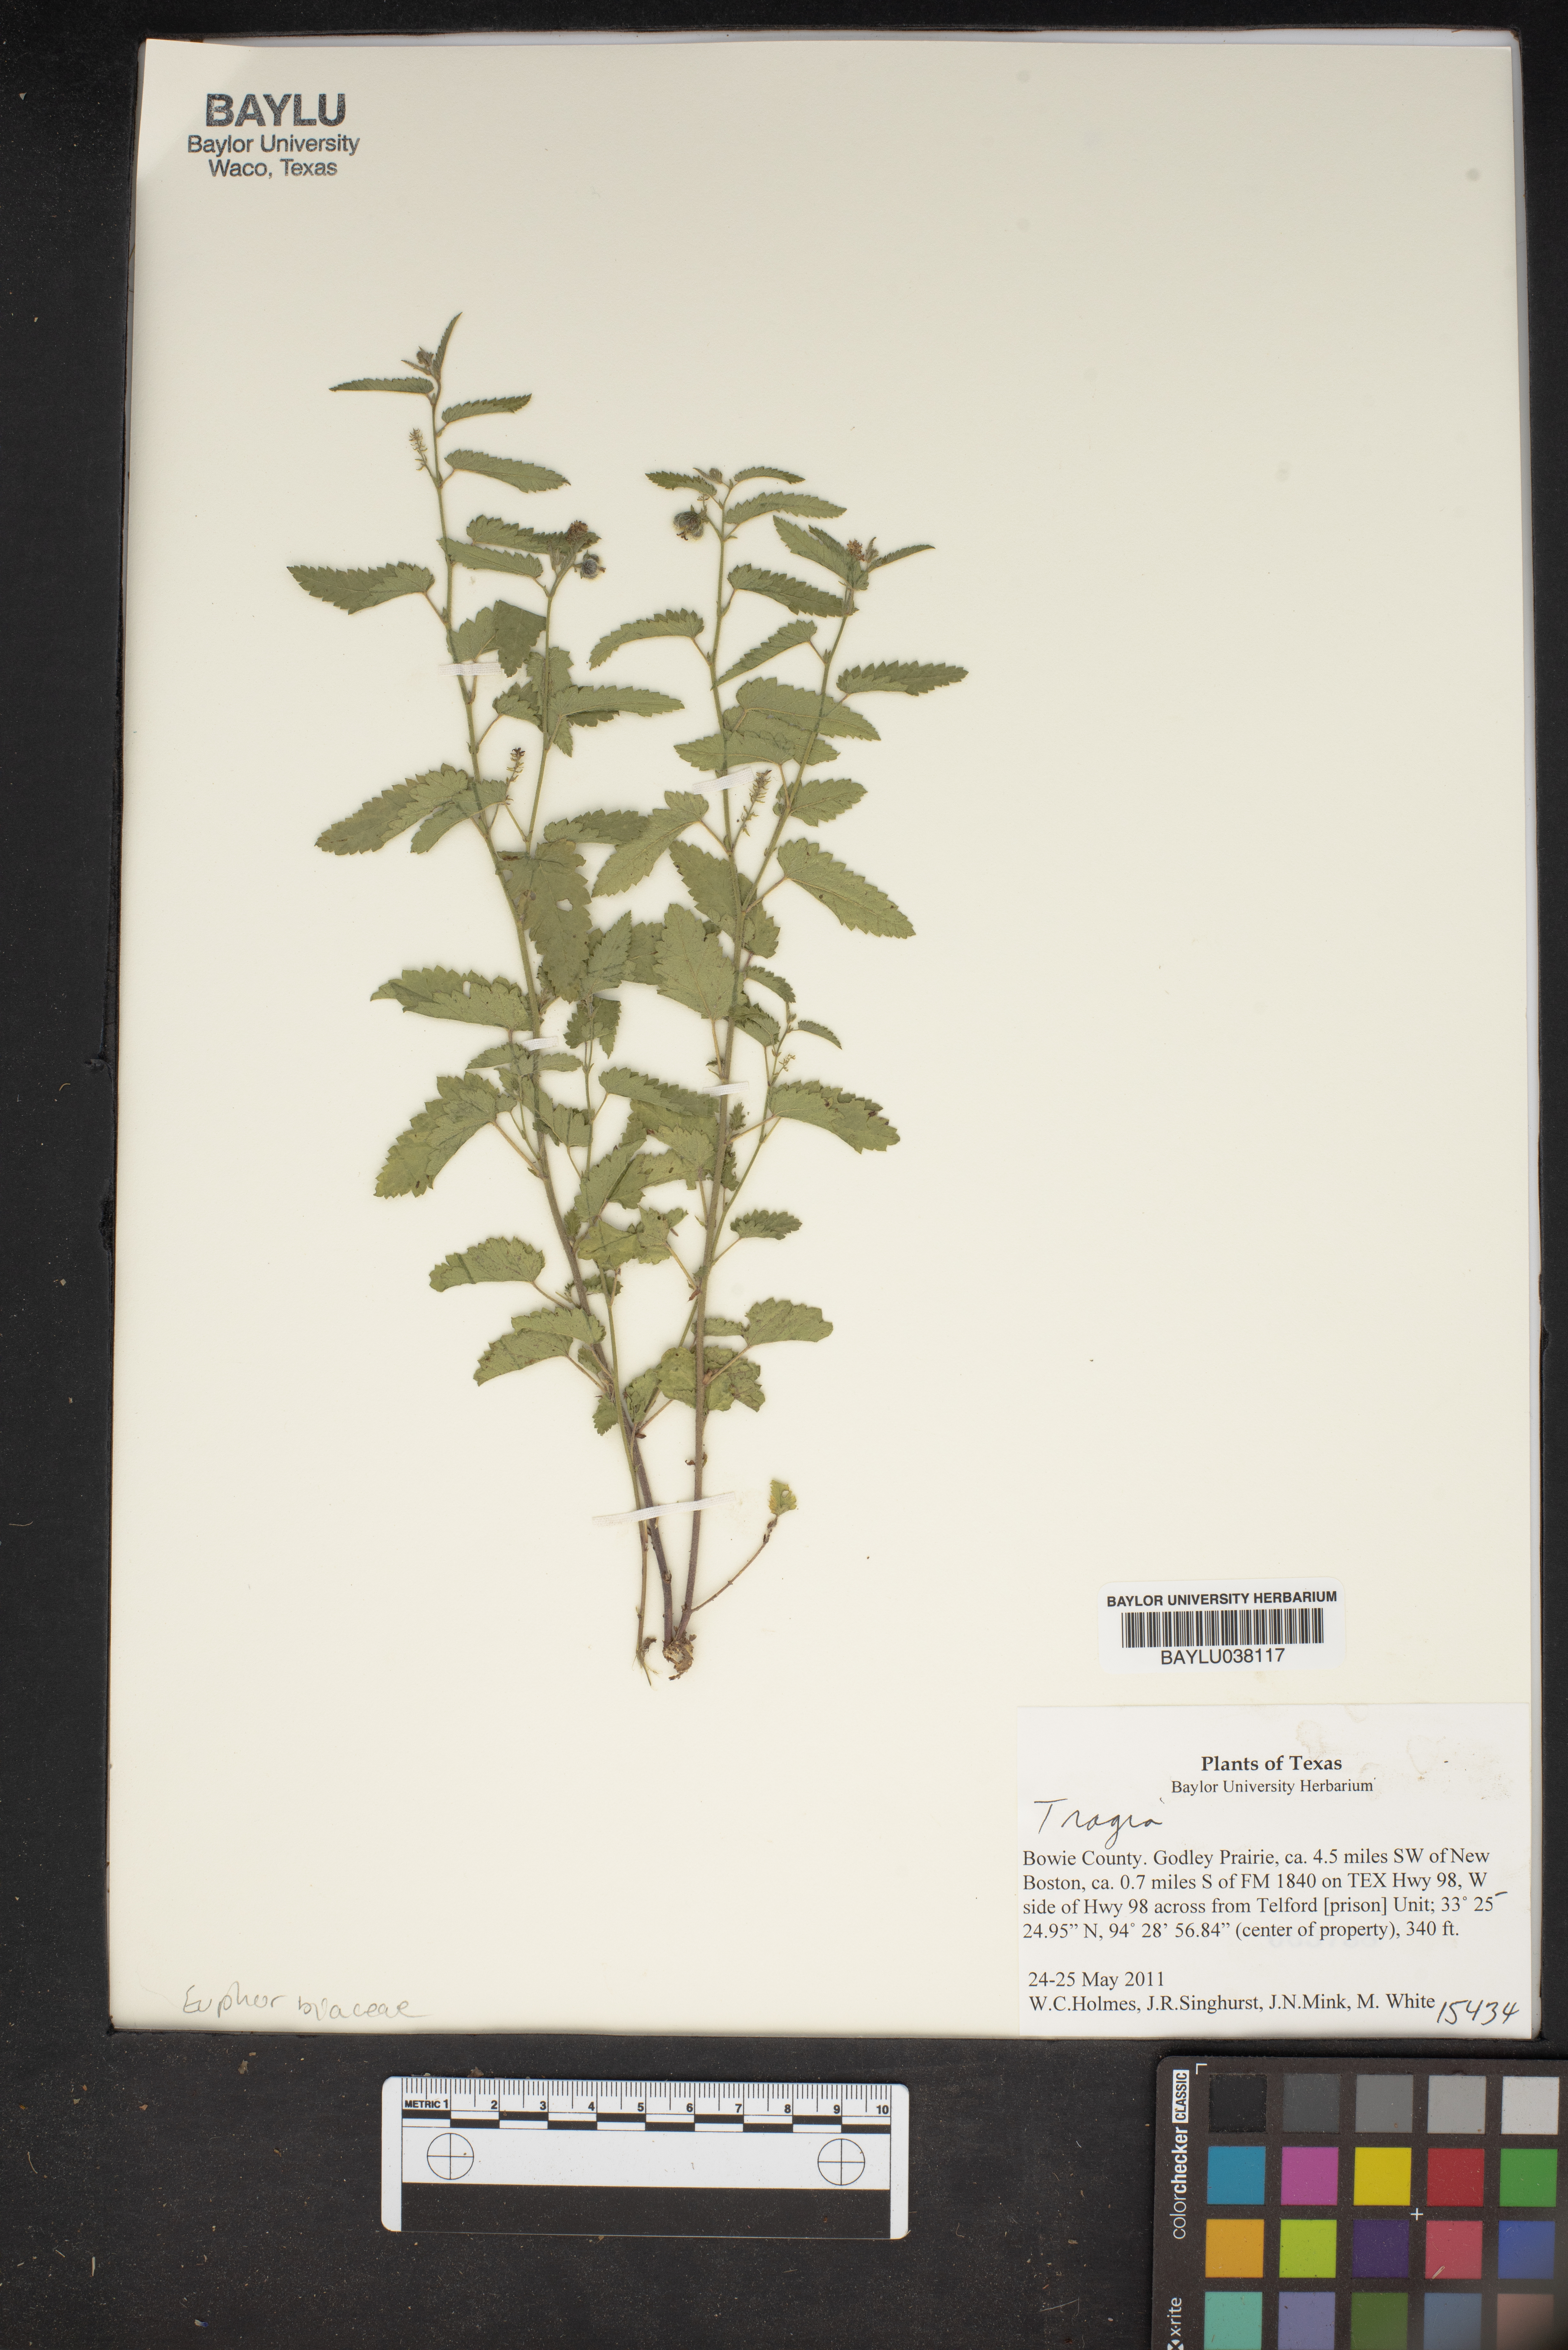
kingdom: Plantae
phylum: Tracheophyta
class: Magnoliopsida
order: Malpighiales
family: Euphorbiaceae
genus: Tragia
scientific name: Tragia
